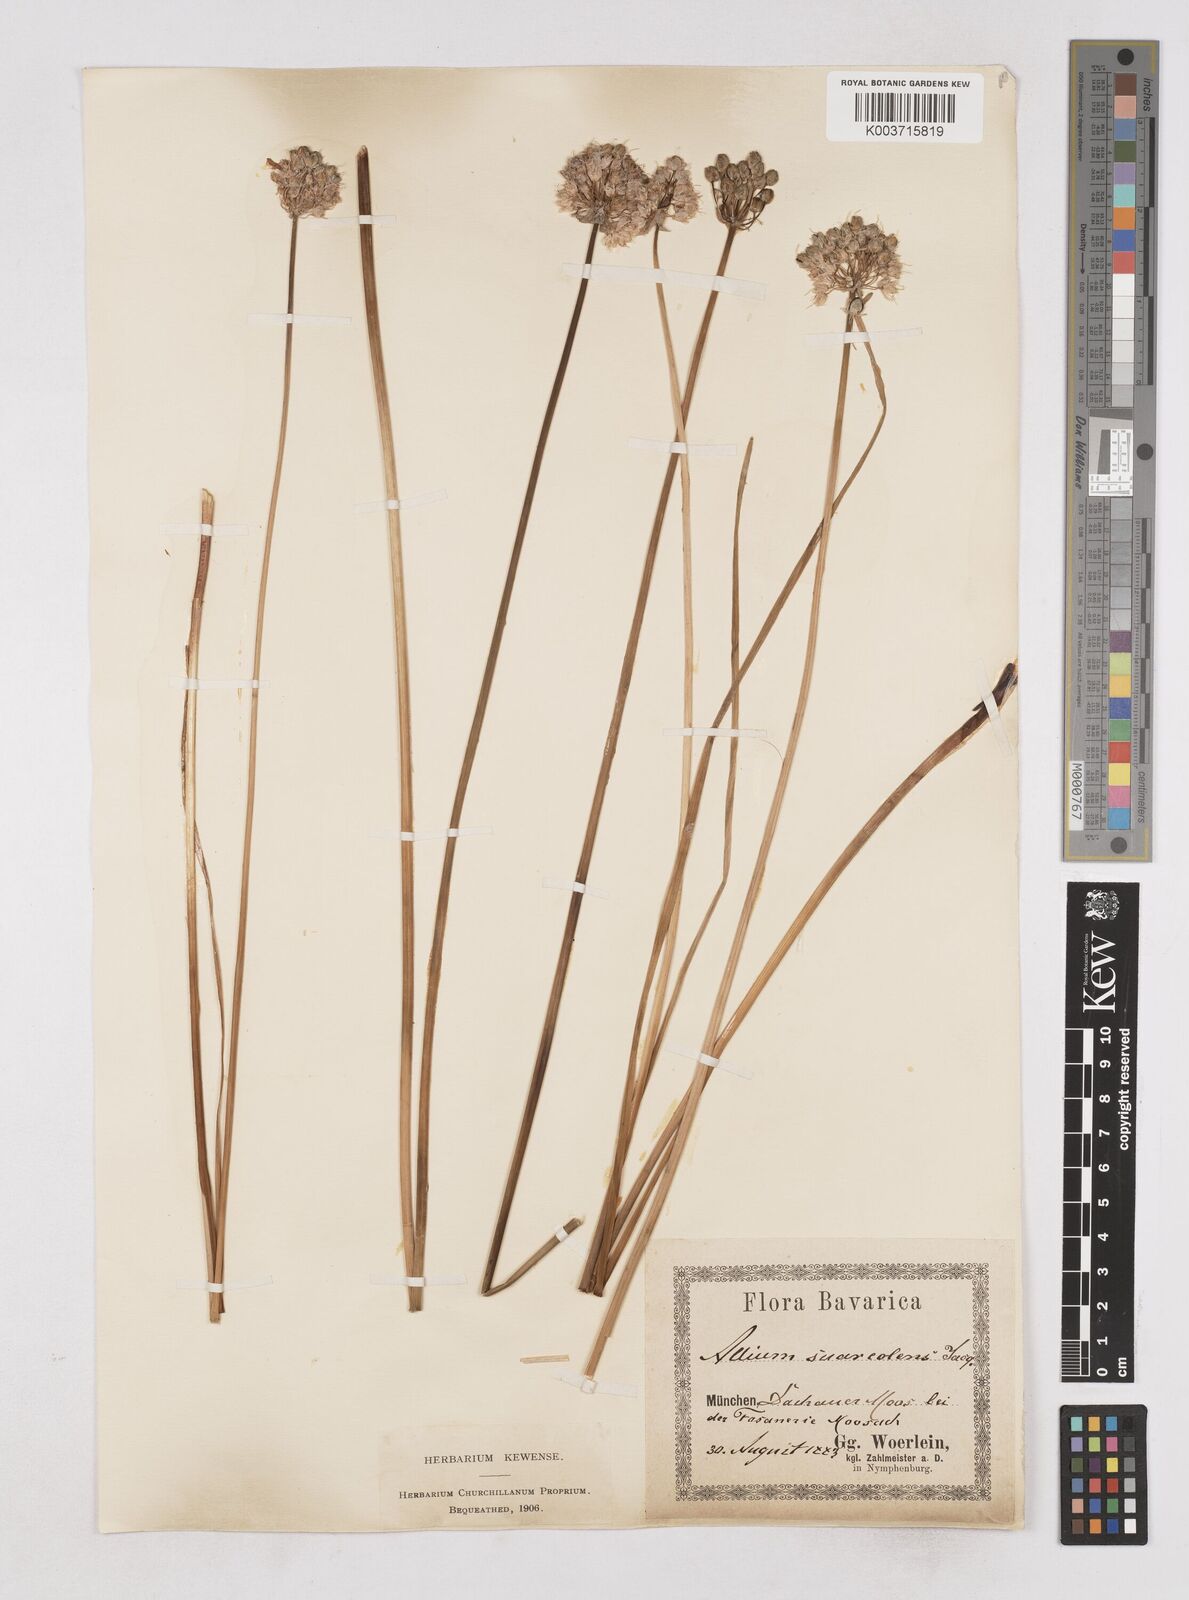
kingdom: Plantae
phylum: Tracheophyta
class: Liliopsida
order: Asparagales
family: Amaryllidaceae
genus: Allium
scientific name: Allium suaveolens
